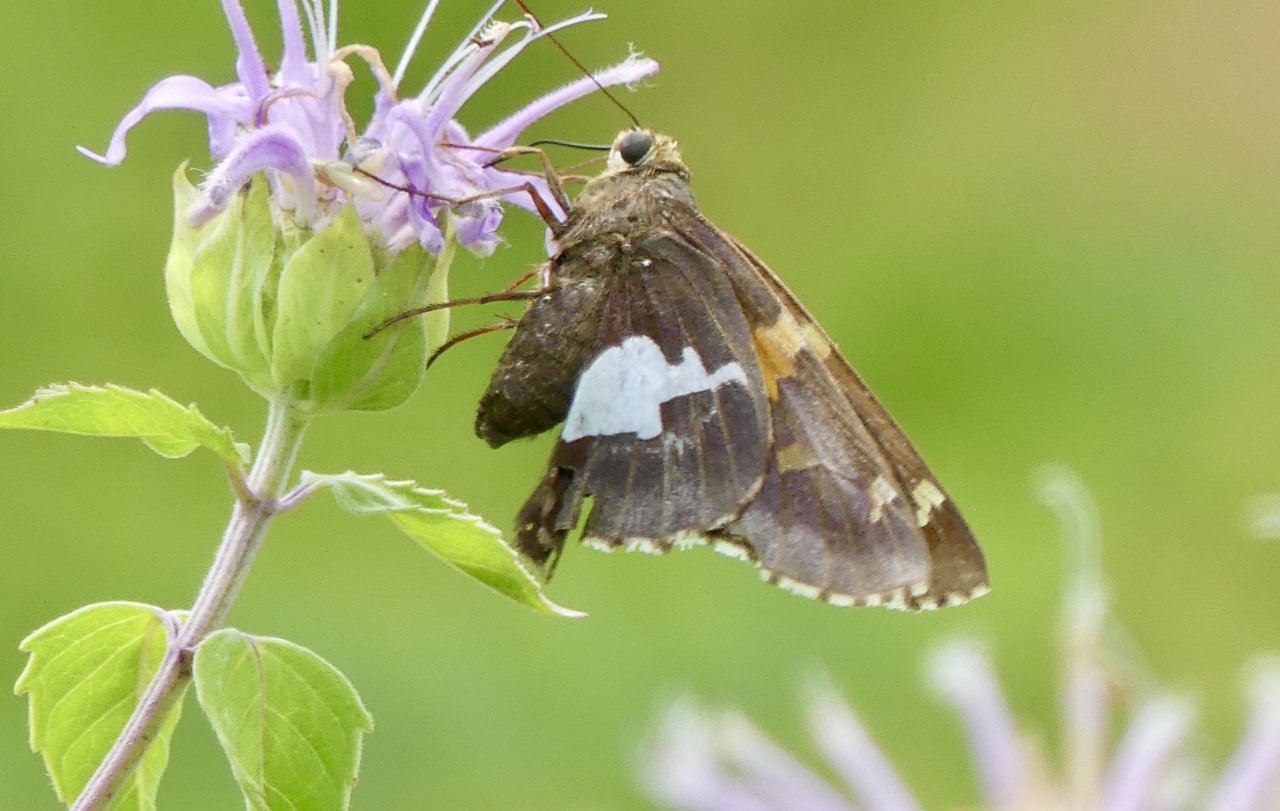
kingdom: Animalia
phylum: Arthropoda
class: Insecta
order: Lepidoptera
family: Hesperiidae
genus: Epargyreus
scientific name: Epargyreus clarus
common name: Silver-spotted Skipper
